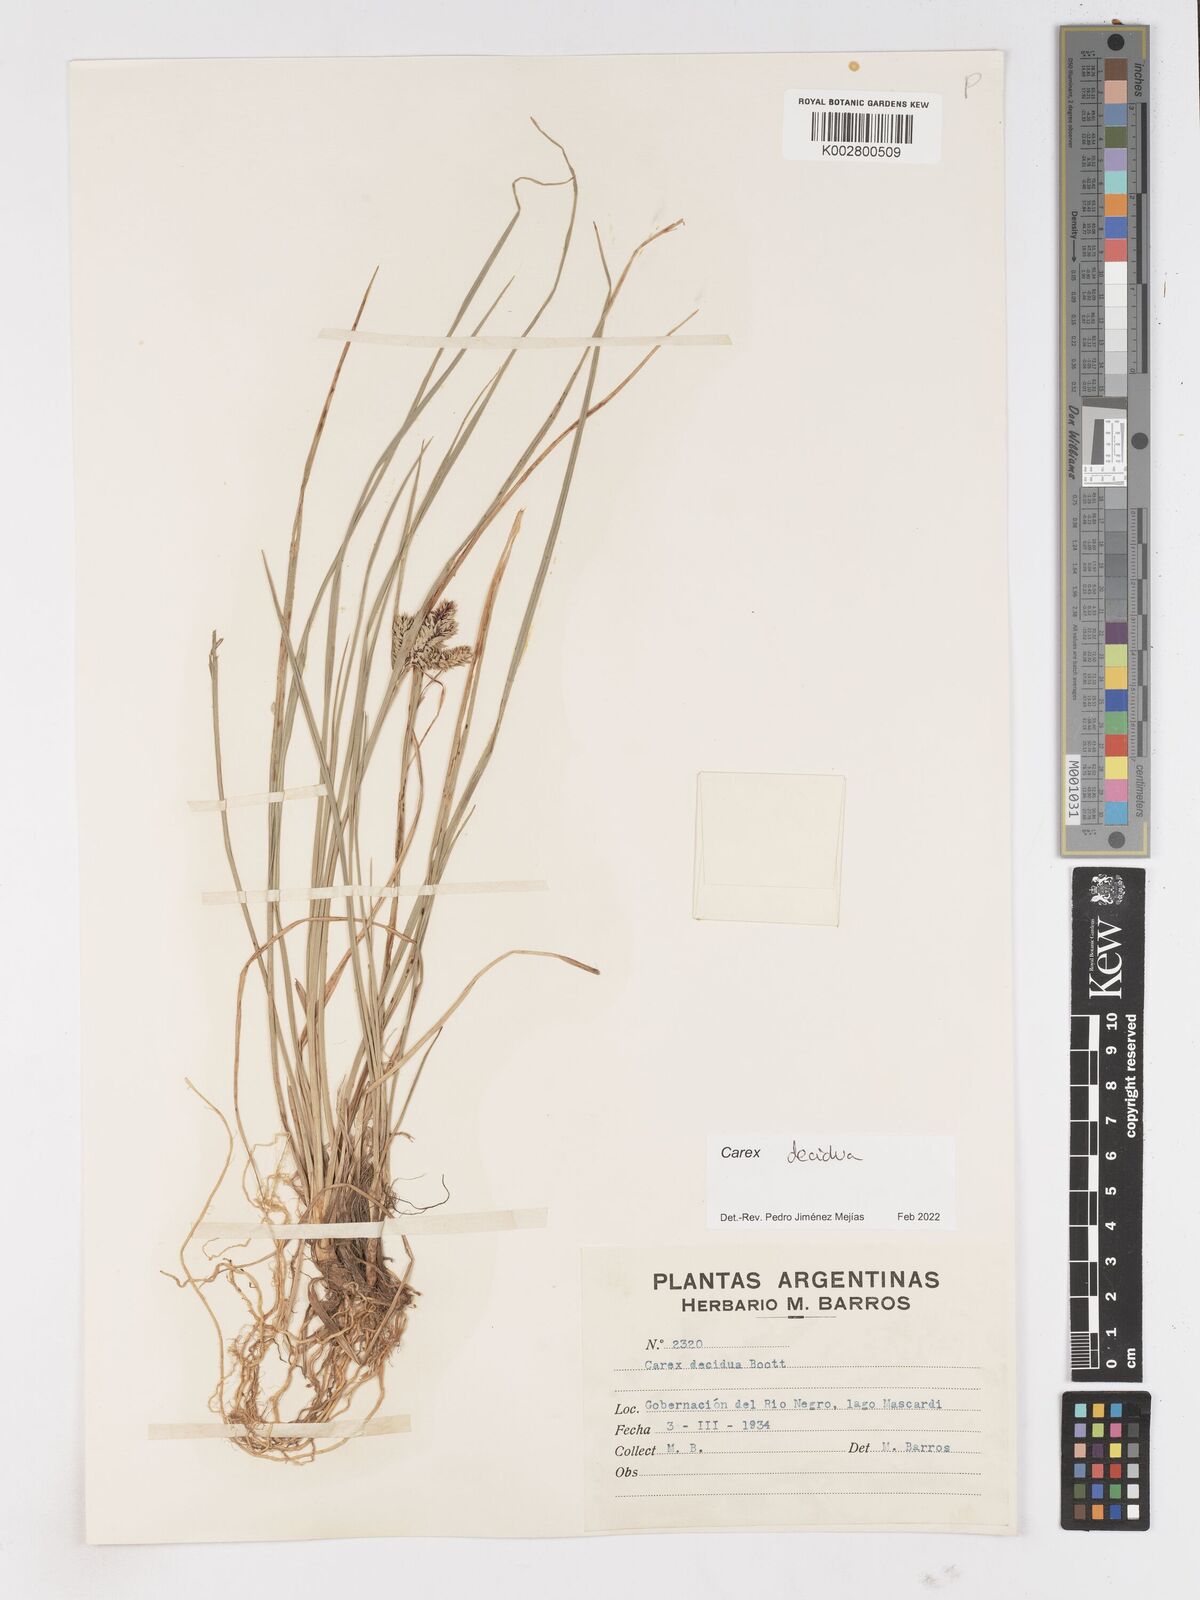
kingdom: Plantae
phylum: Tracheophyta
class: Liliopsida
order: Poales
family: Cyperaceae
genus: Carex
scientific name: Carex decidua
